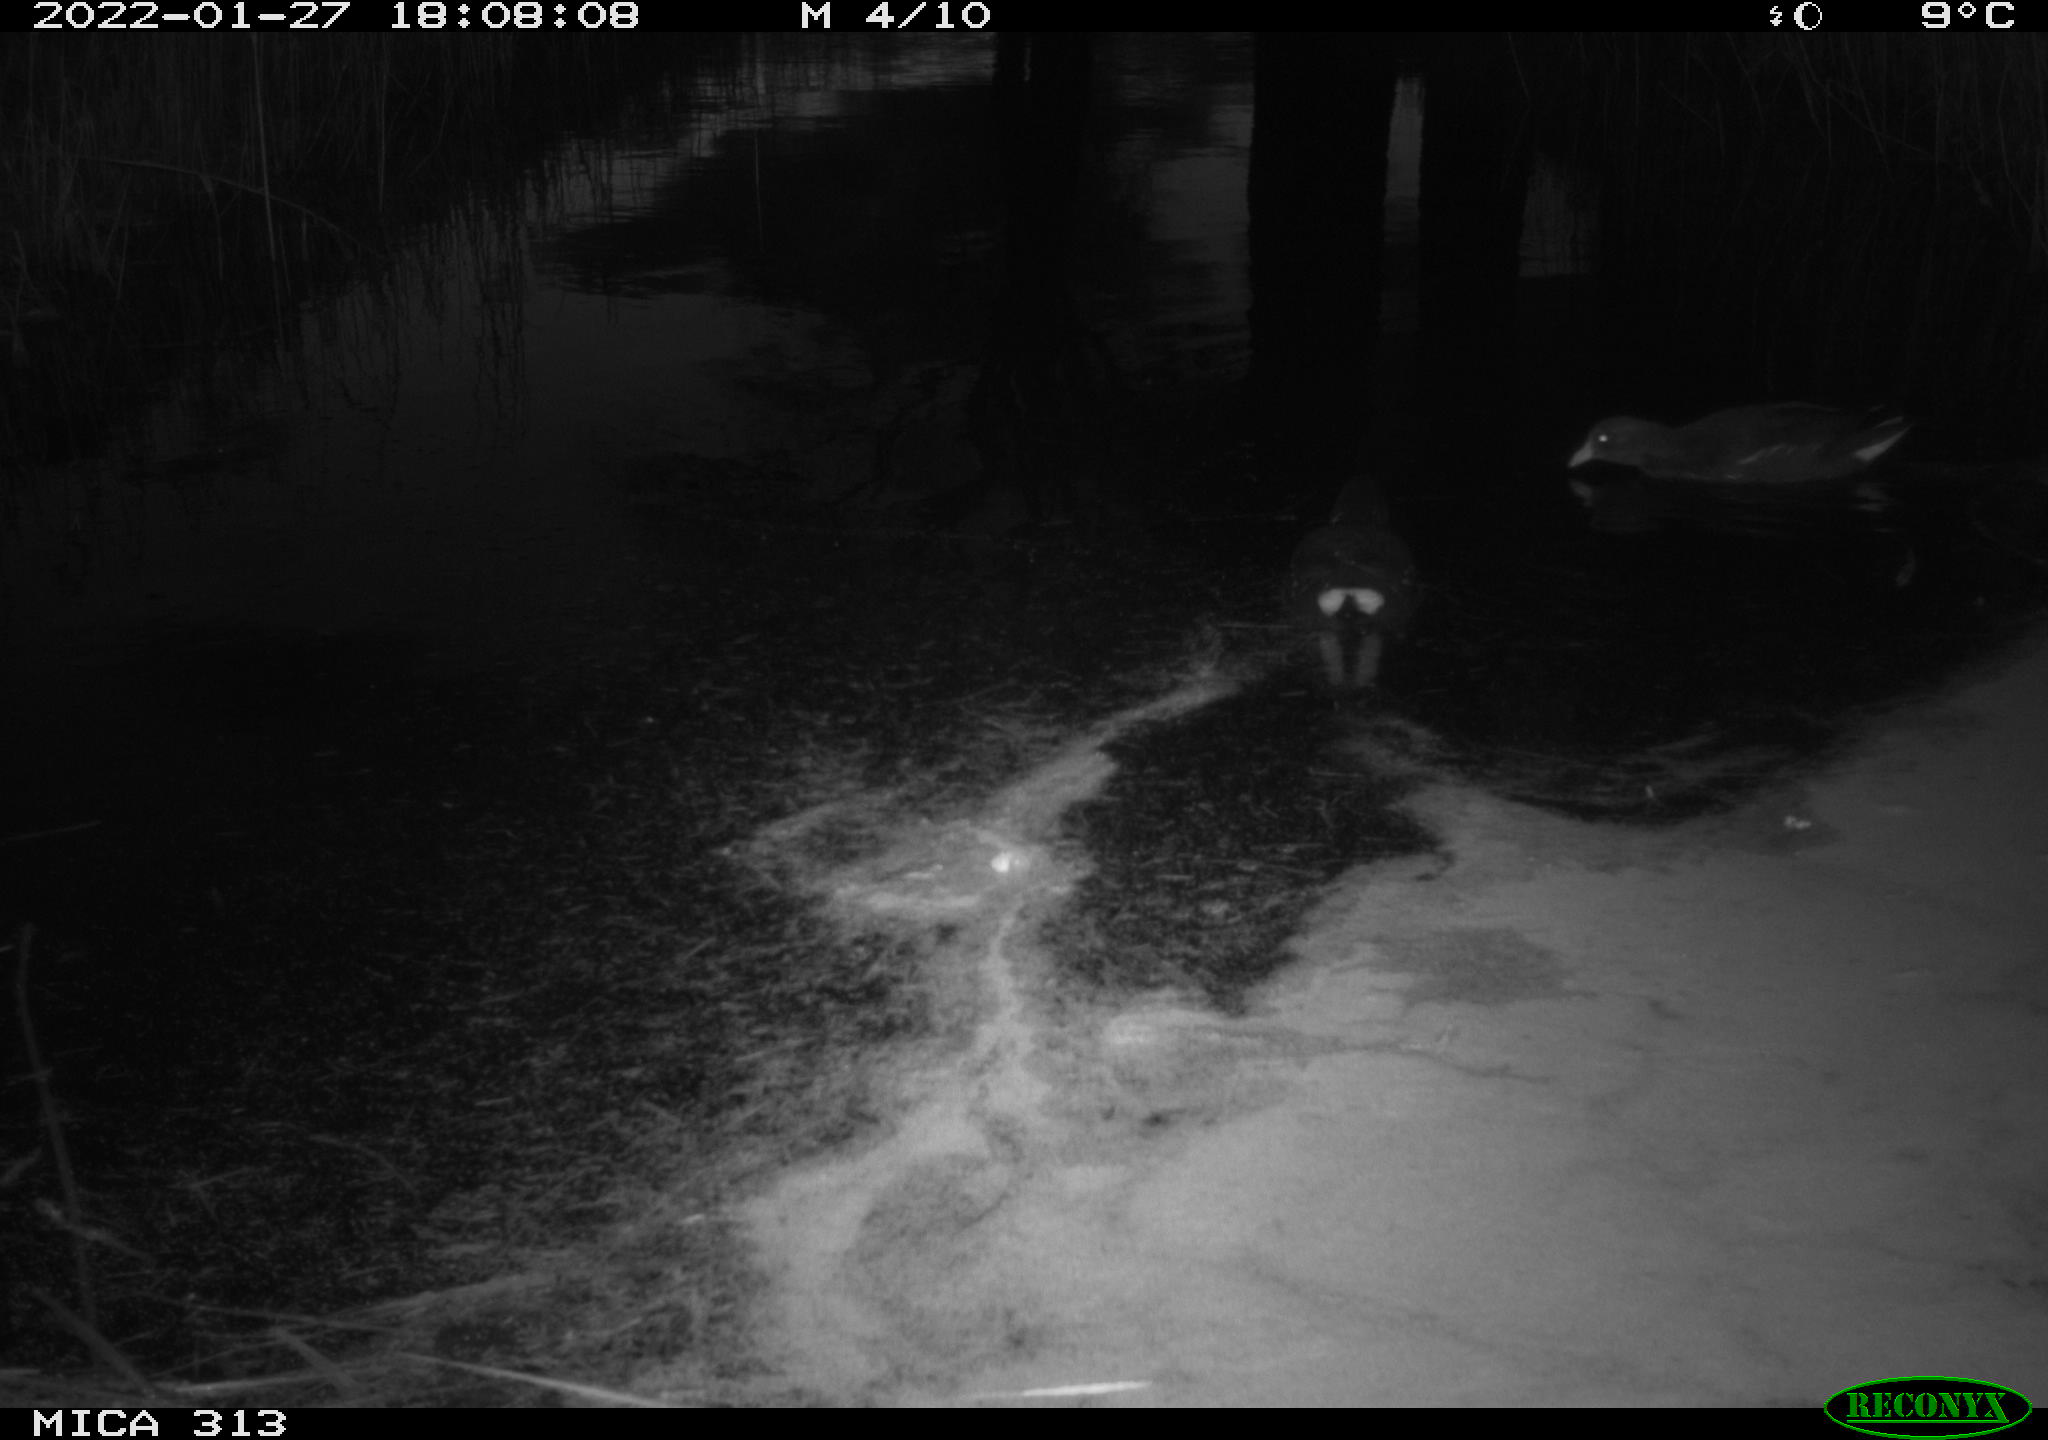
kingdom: Animalia
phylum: Chordata
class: Aves
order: Gruiformes
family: Rallidae
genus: Gallinula
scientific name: Gallinula chloropus
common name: Common moorhen
